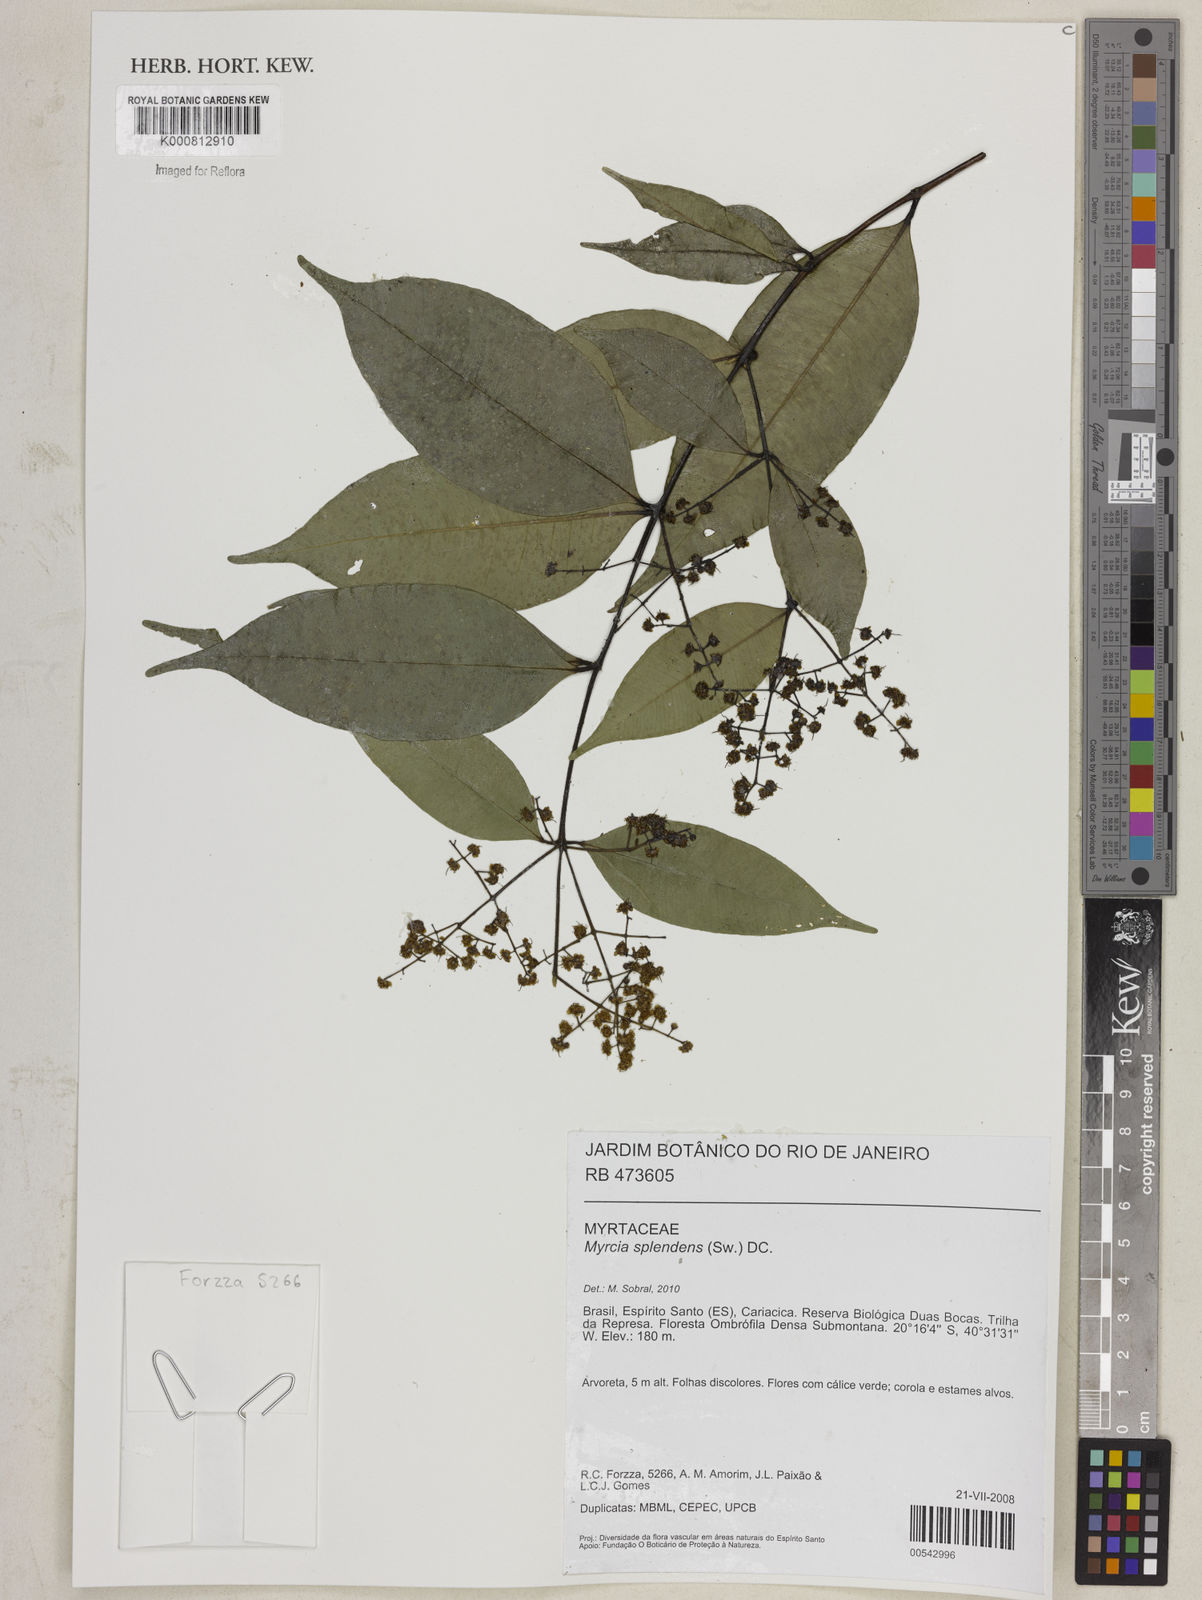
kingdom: Plantae
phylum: Tracheophyta
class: Magnoliopsida
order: Myrtales
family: Myrtaceae
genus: Myrcia
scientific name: Myrcia splendens
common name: Surinam cherry
